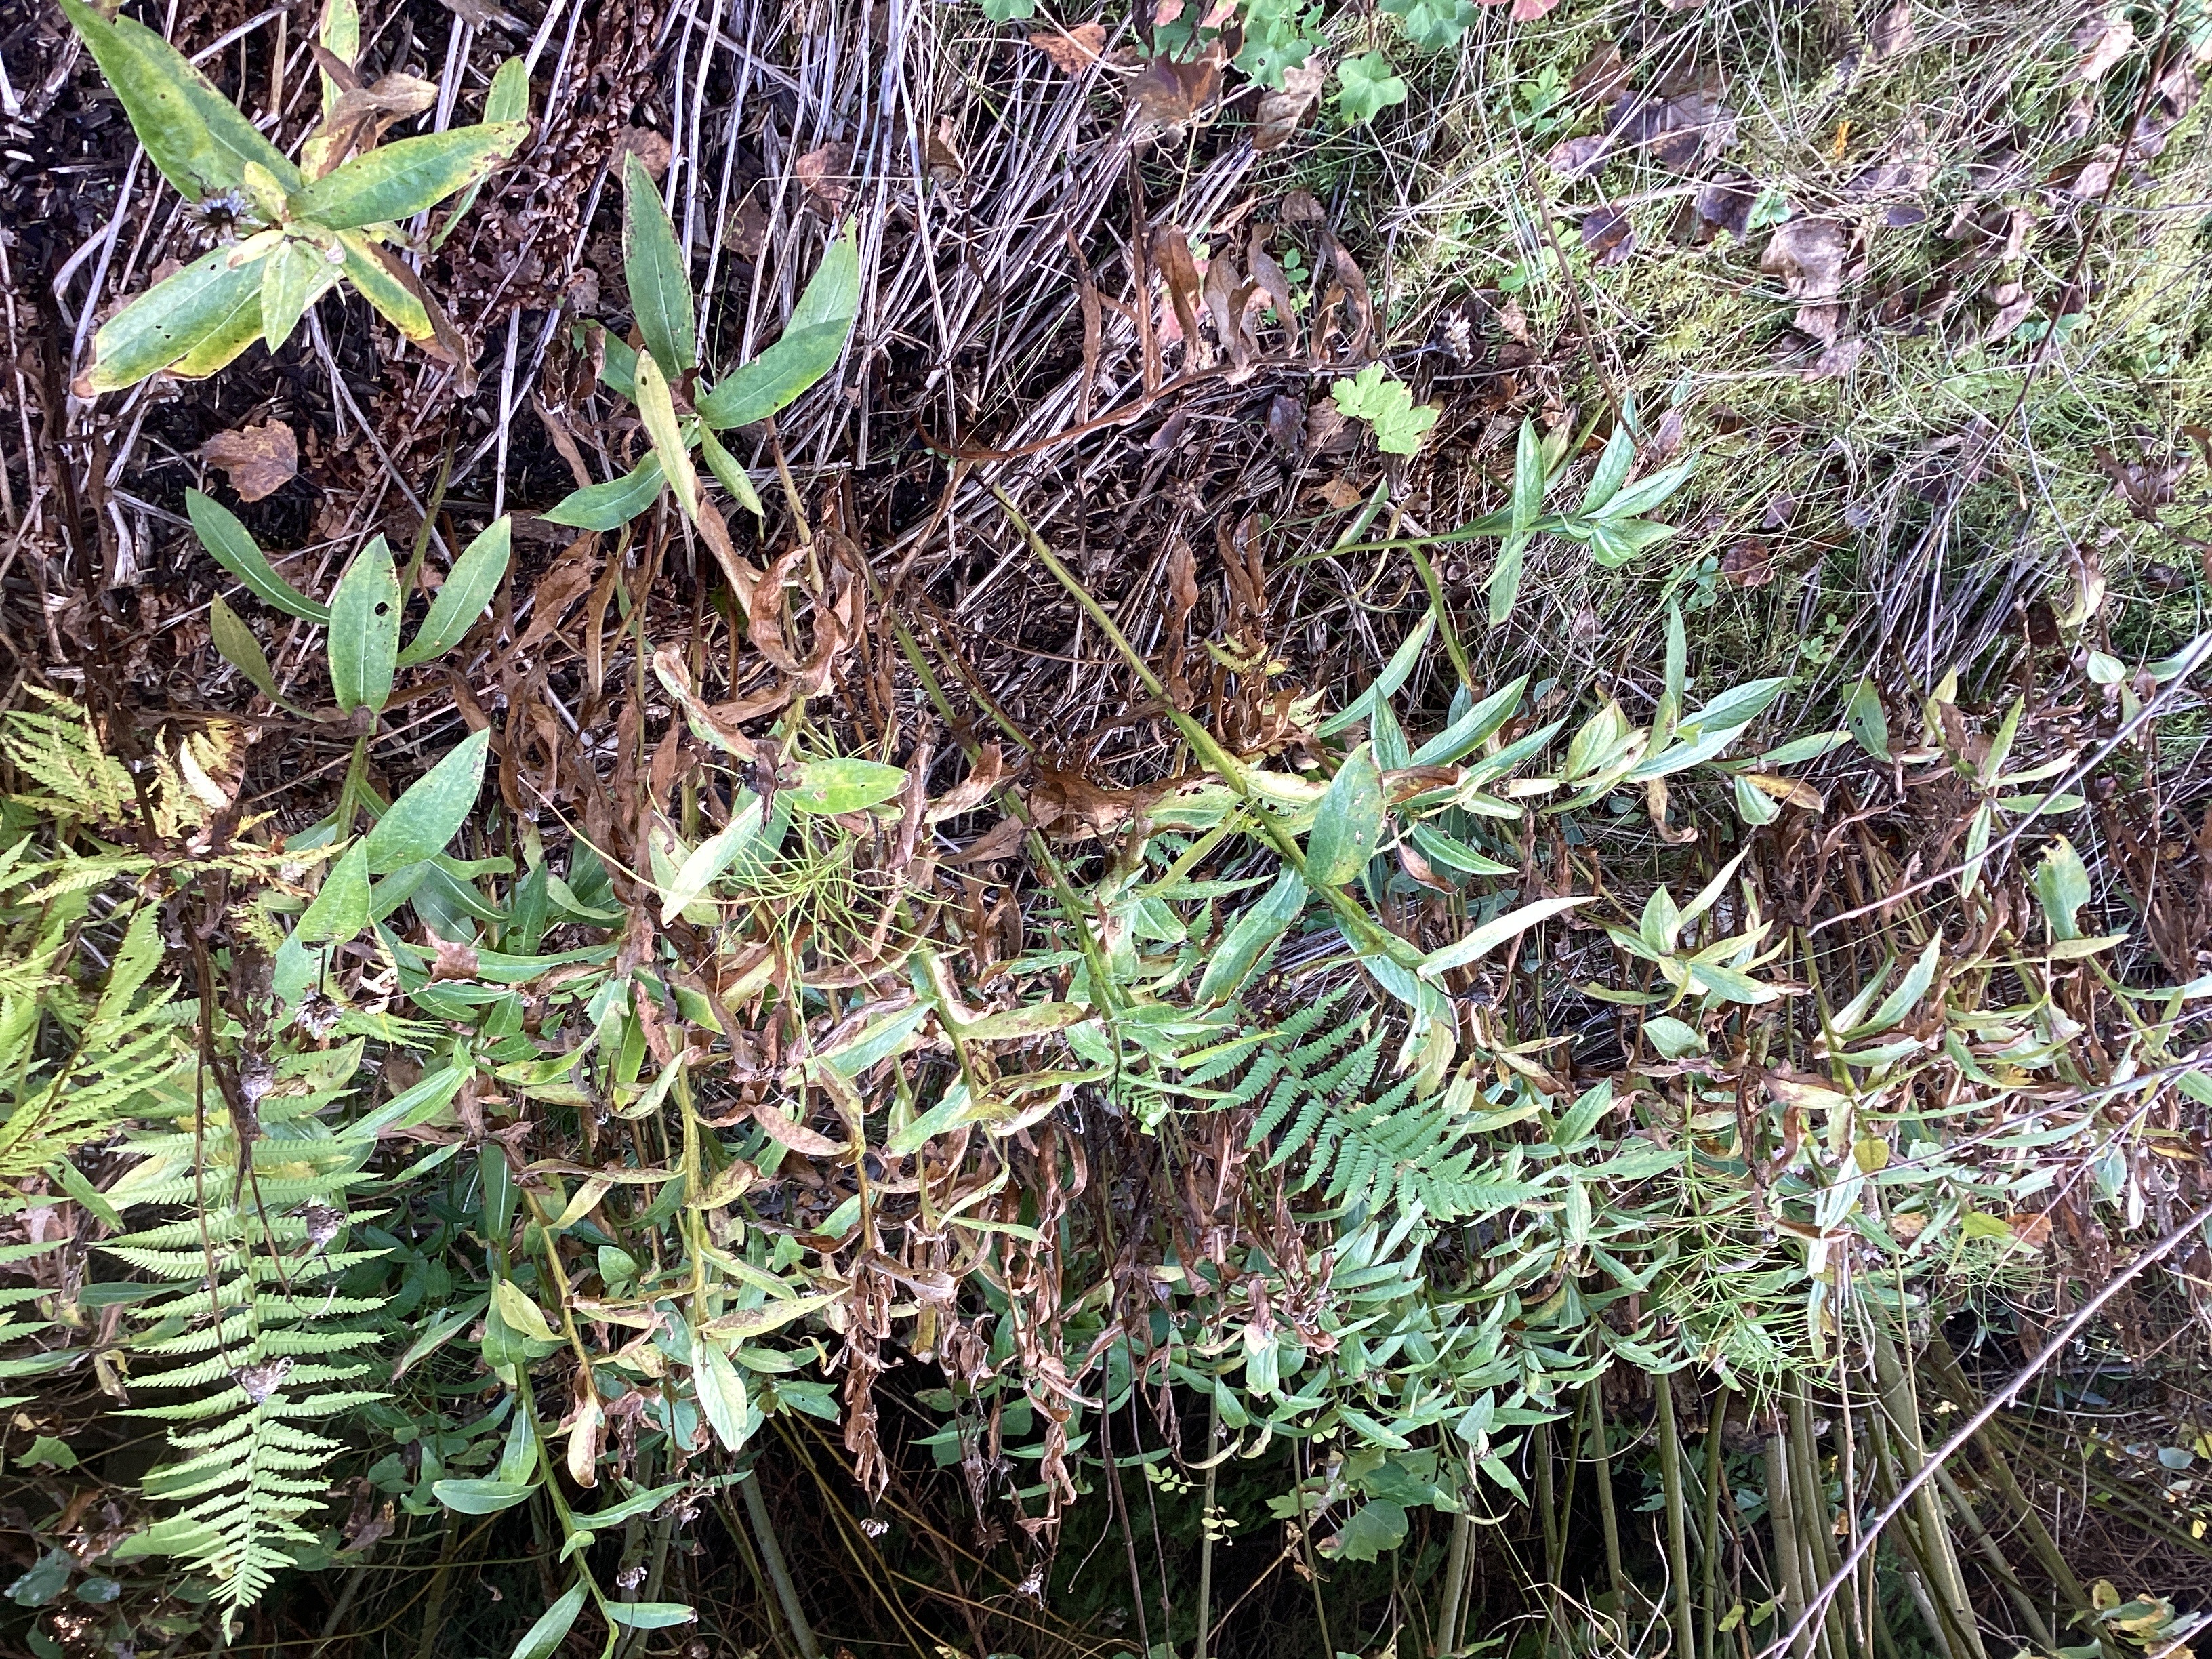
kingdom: Plantae
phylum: Tracheophyta
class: Magnoliopsida
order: Asterales
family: Asteraceae
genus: Centaurea
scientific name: Centaurea montana
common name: honningknoppurt
